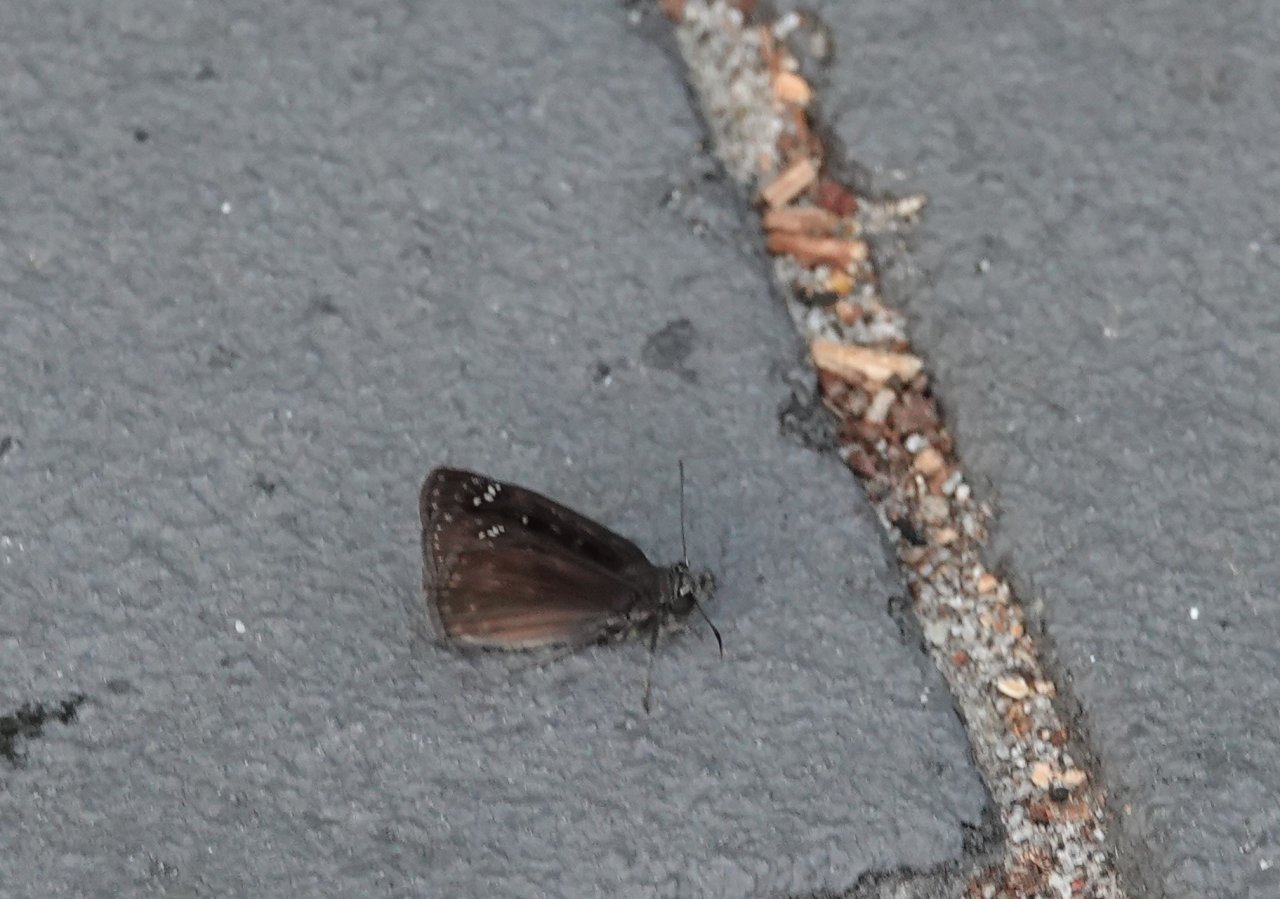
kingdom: Animalia
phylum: Arthropoda
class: Insecta
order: Lepidoptera
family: Hesperiidae
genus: Gesta
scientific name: Gesta
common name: Horace's Duskywing
